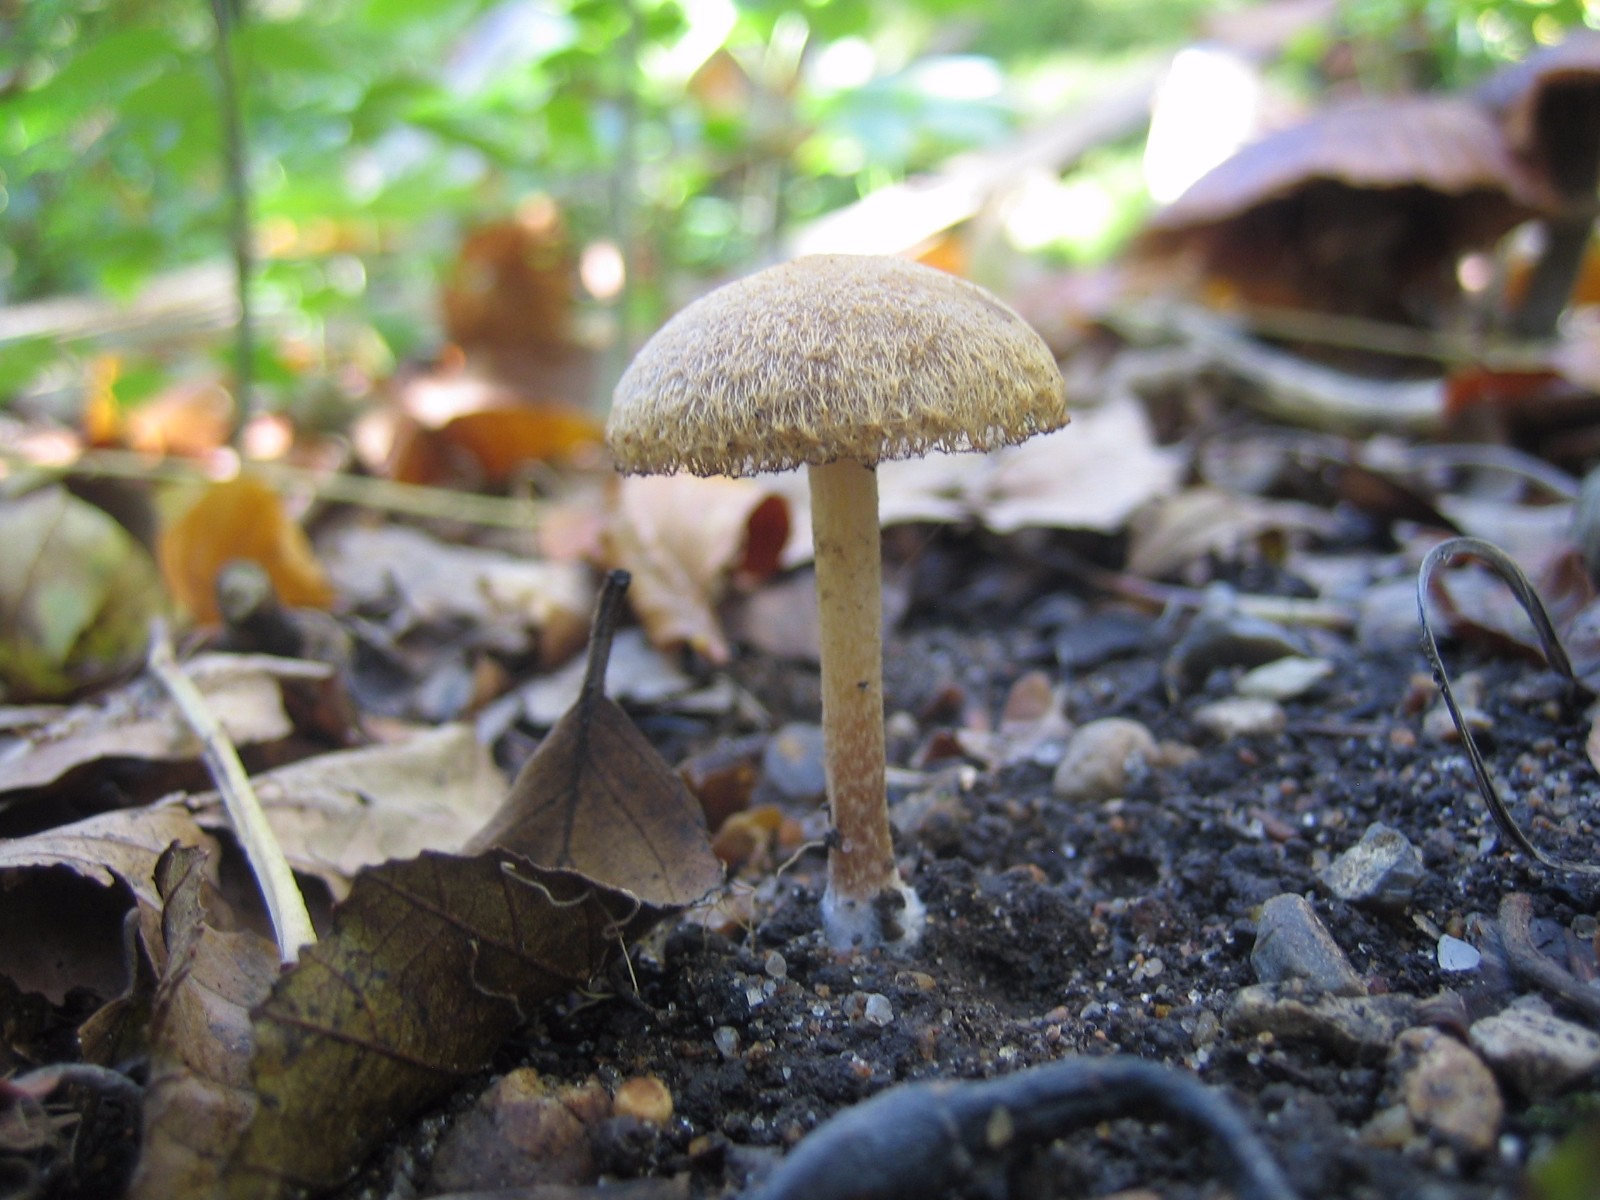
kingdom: Fungi
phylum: Basidiomycota
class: Agaricomycetes
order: Agaricales
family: Psathyrellaceae
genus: Lacrymaria
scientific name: Lacrymaria lacrymabunda
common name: grædende mørkhat
